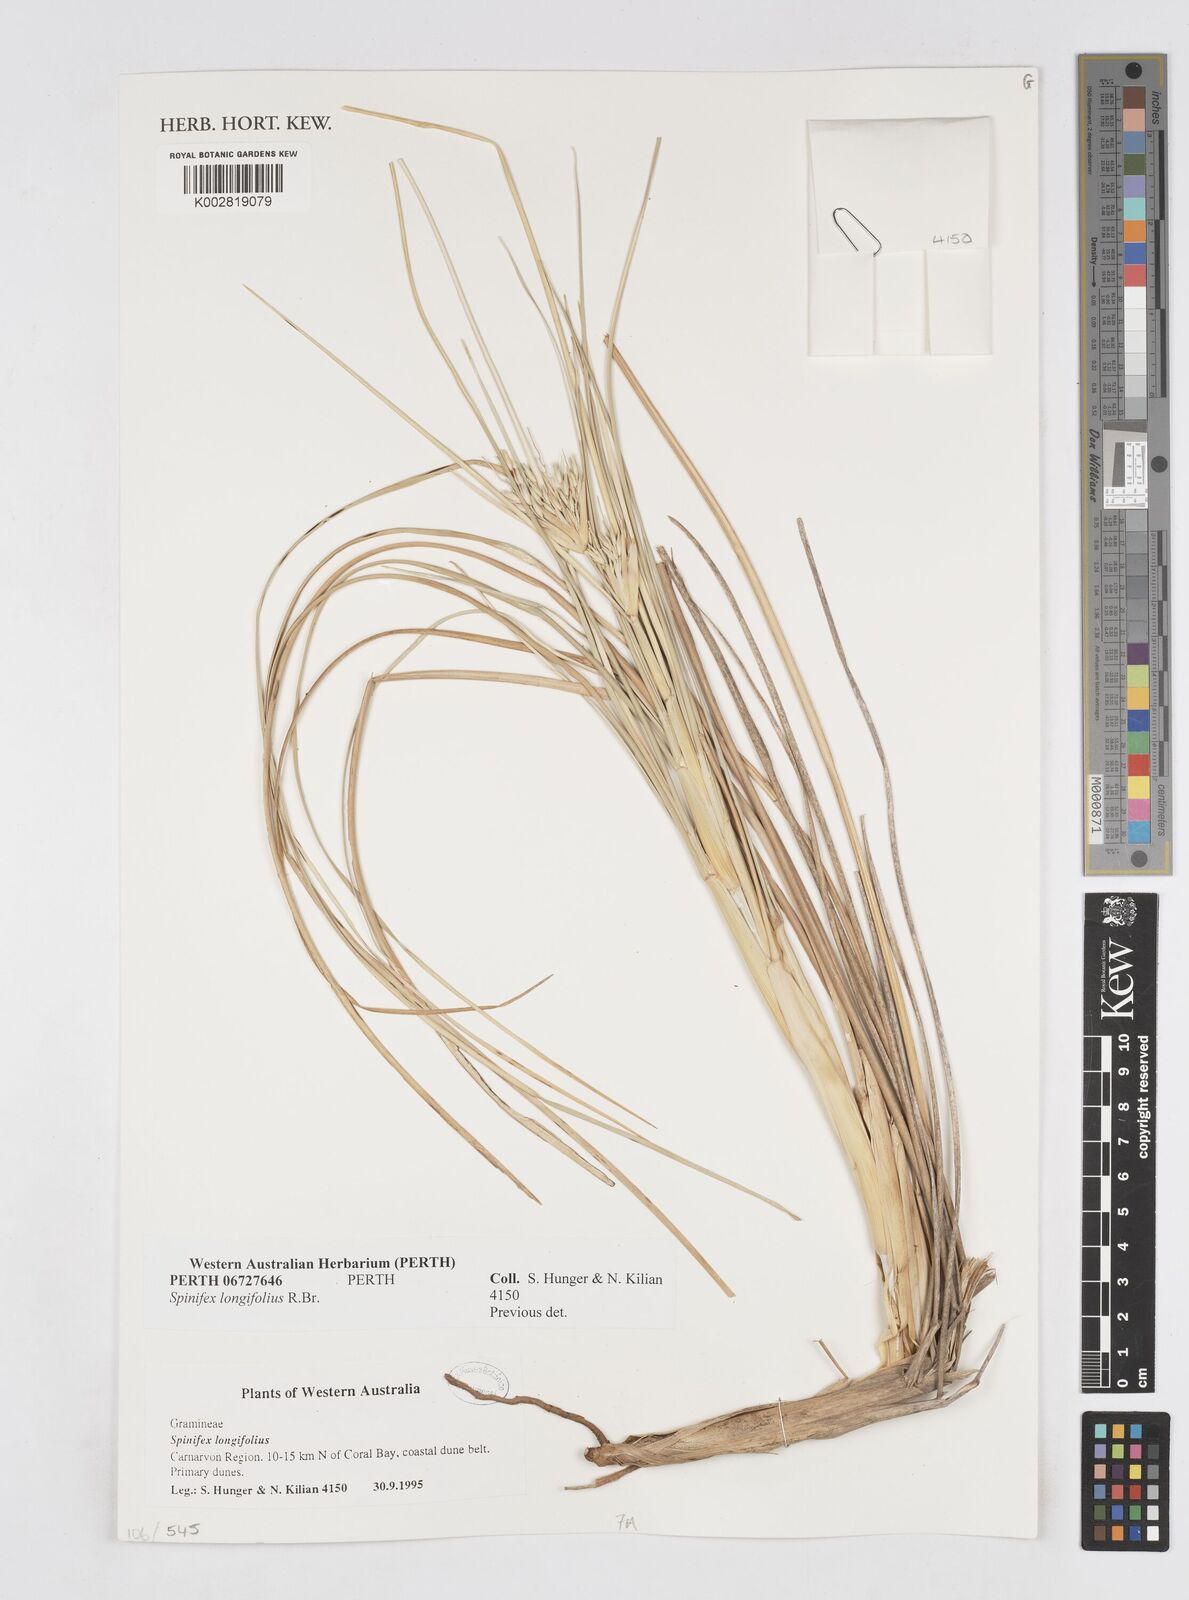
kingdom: Plantae
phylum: Tracheophyta
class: Liliopsida
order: Poales
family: Poaceae
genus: Spinifex
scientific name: Spinifex longifolius
